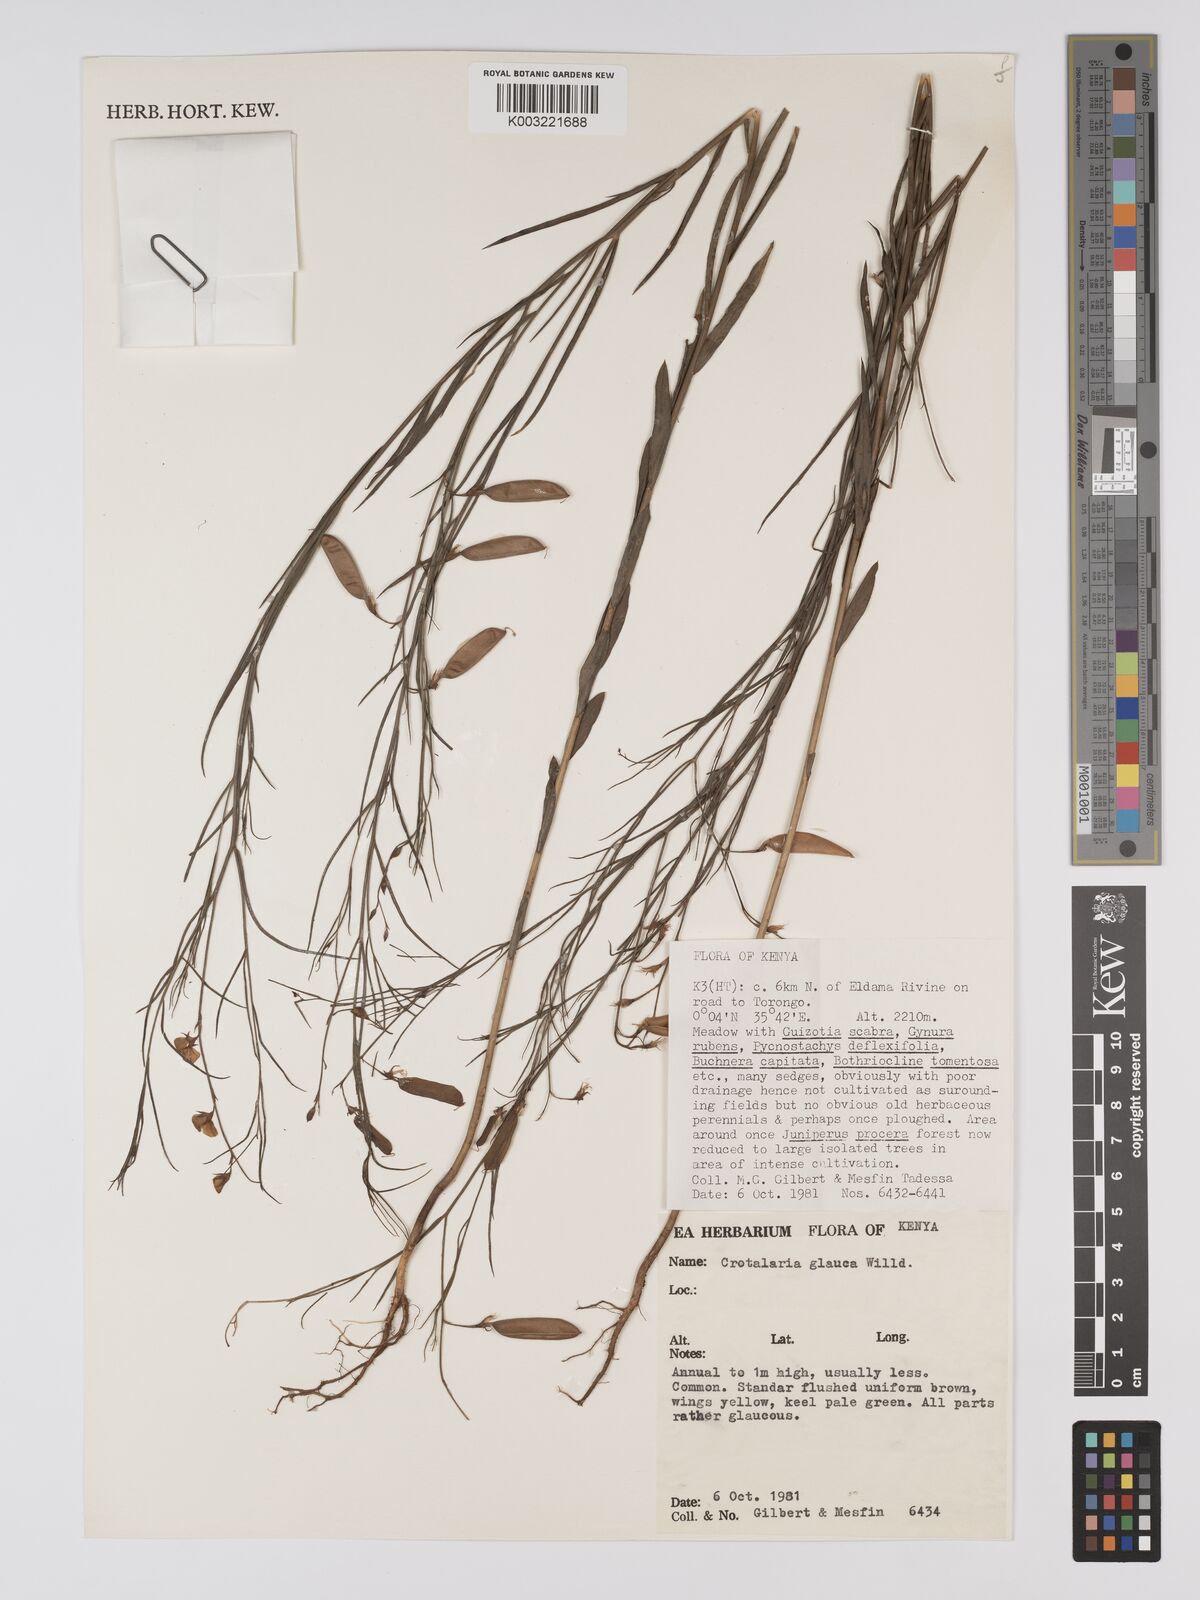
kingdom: Plantae
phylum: Tracheophyta
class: Magnoliopsida
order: Fabales
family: Fabaceae
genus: Crotalaria
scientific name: Crotalaria glauca
